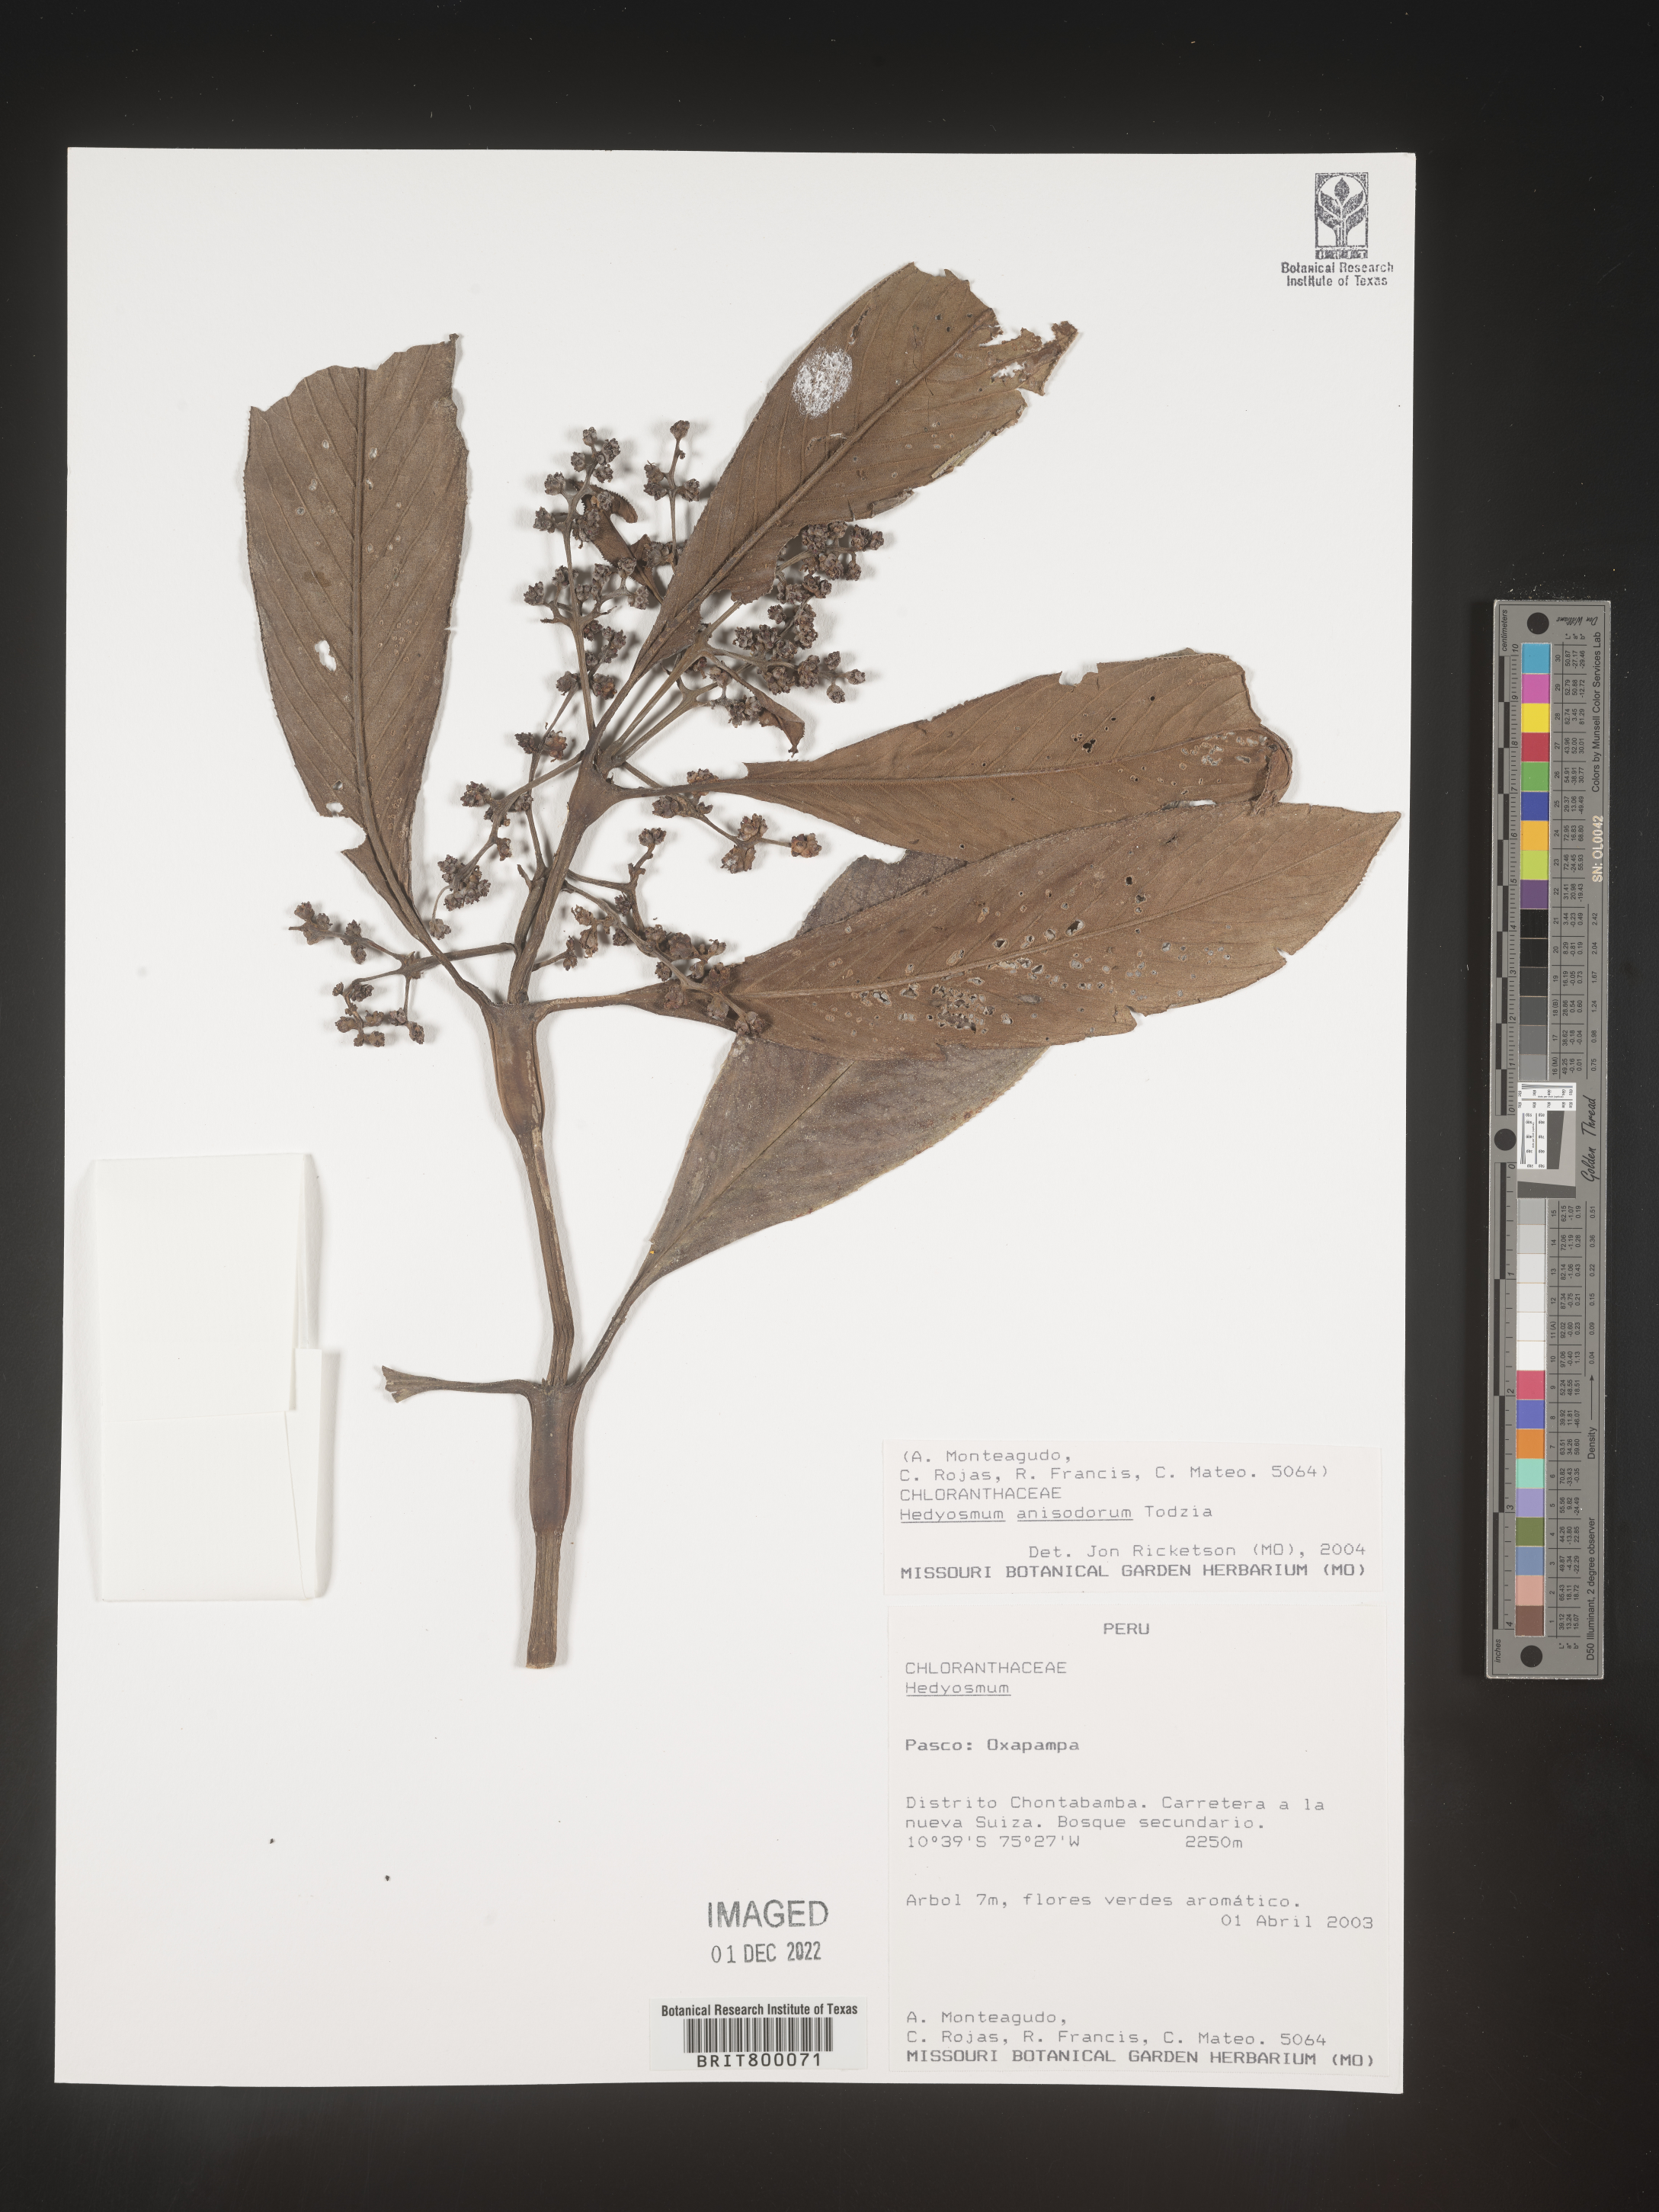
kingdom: Plantae
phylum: Tracheophyta
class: Magnoliopsida
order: Chloranthales
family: Chloranthaceae
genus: Hedyosmum
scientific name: Hedyosmum
